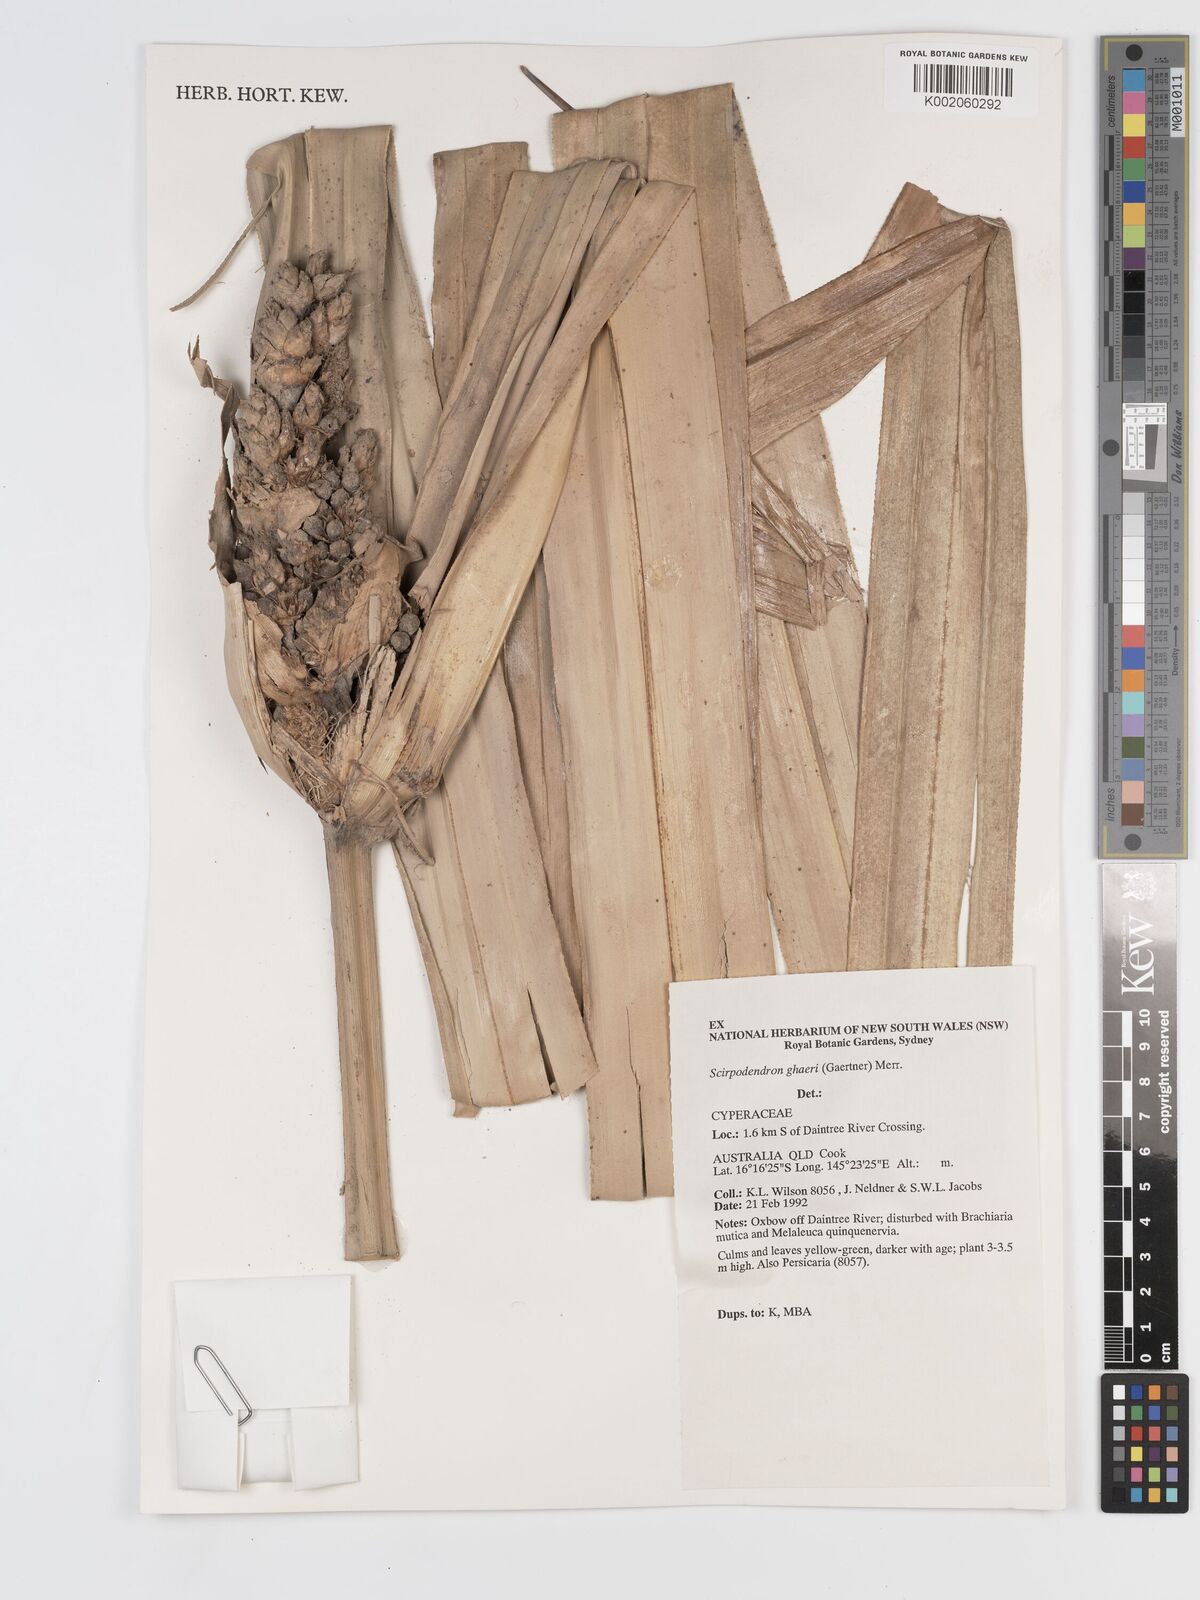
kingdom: Plantae
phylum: Tracheophyta
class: Liliopsida
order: Poales
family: Cyperaceae
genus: Scirpodendron
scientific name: Scirpodendron ghaeri
